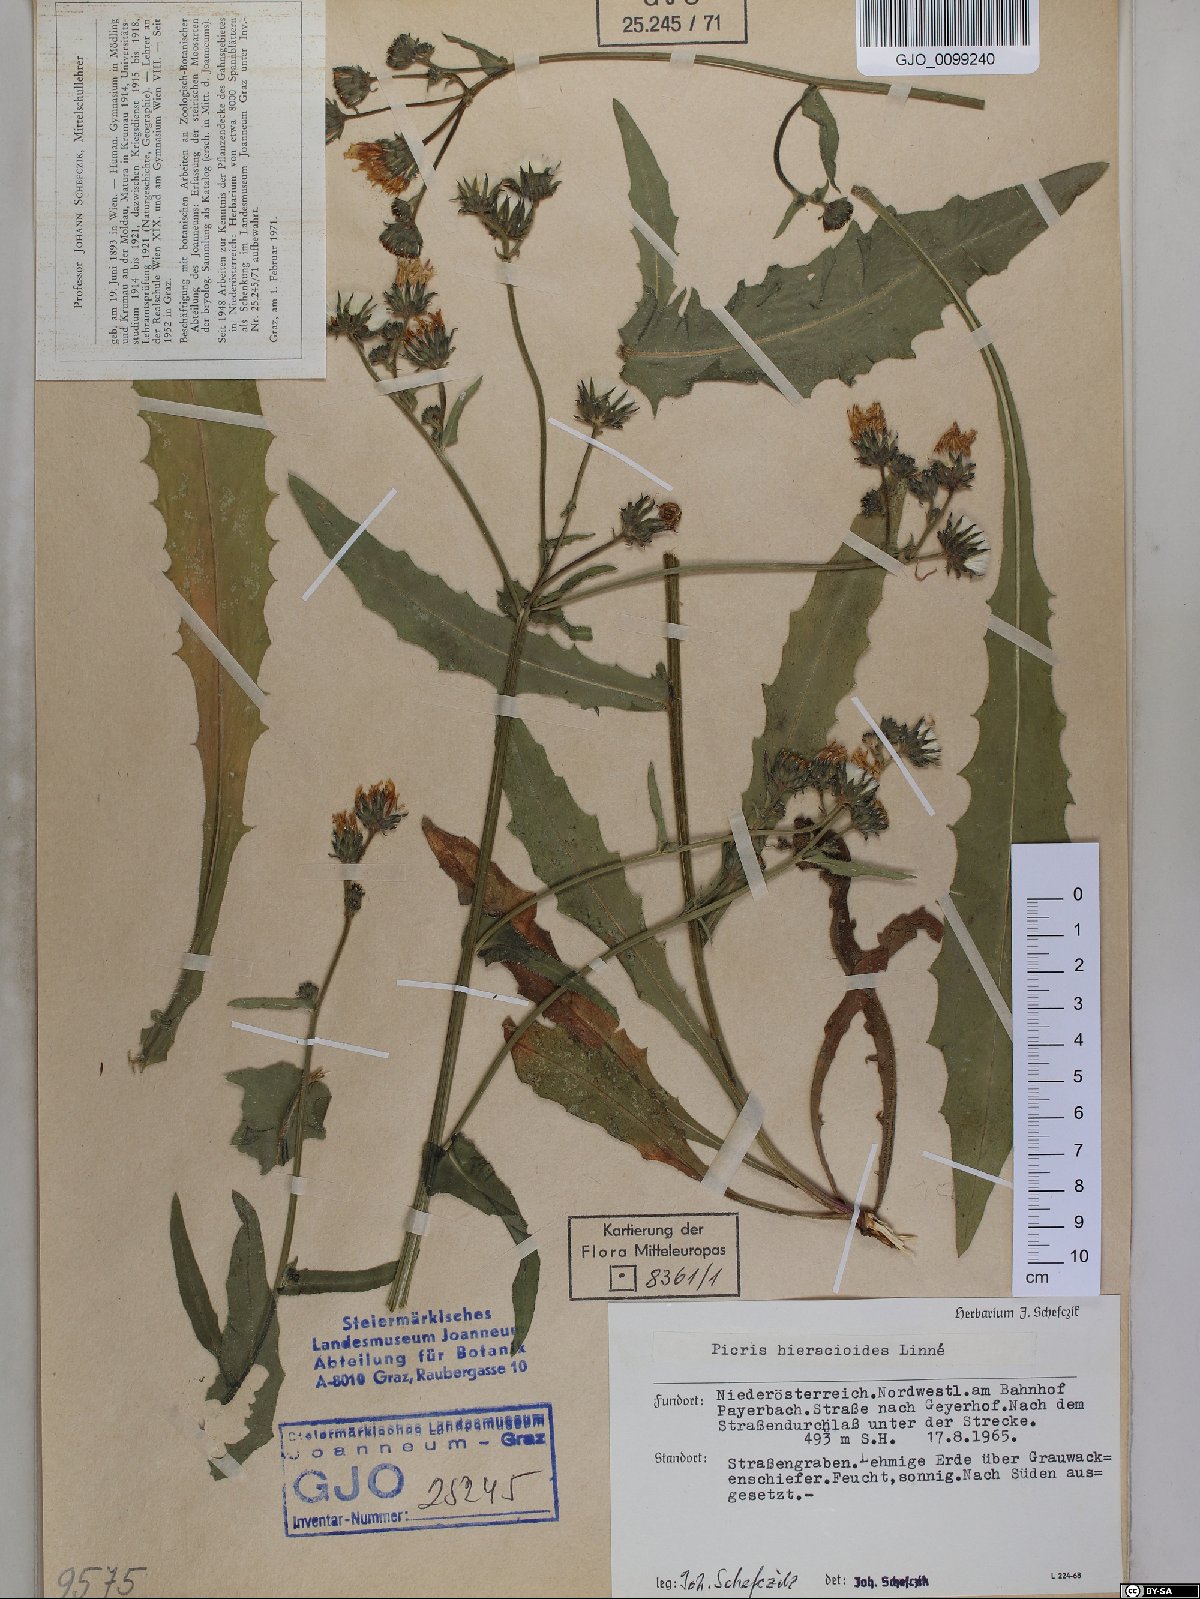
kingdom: Plantae
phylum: Tracheophyta
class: Magnoliopsida
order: Asterales
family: Asteraceae
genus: Picris
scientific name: Picris hieracioides
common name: Hawkweed oxtongue
